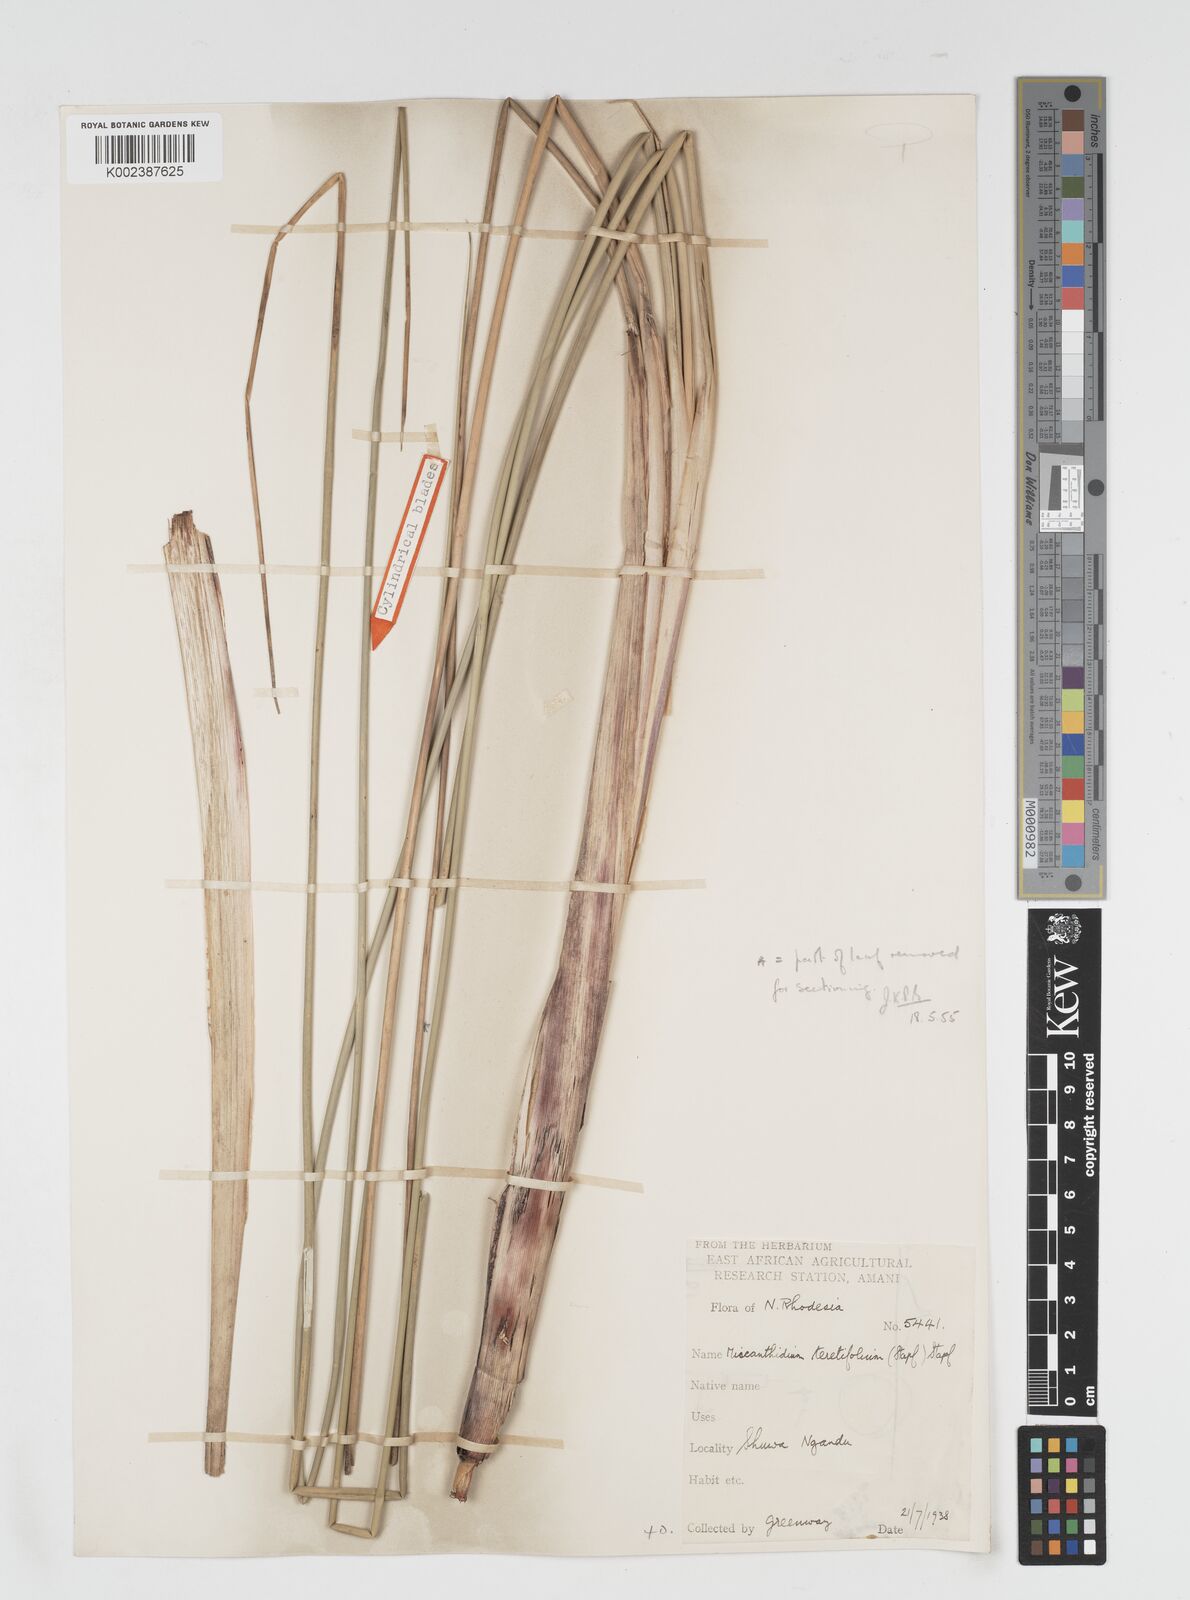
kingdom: Plantae
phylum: Tracheophyta
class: Liliopsida
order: Poales
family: Poaceae
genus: Miscanthidium
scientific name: Miscanthidium junceum
